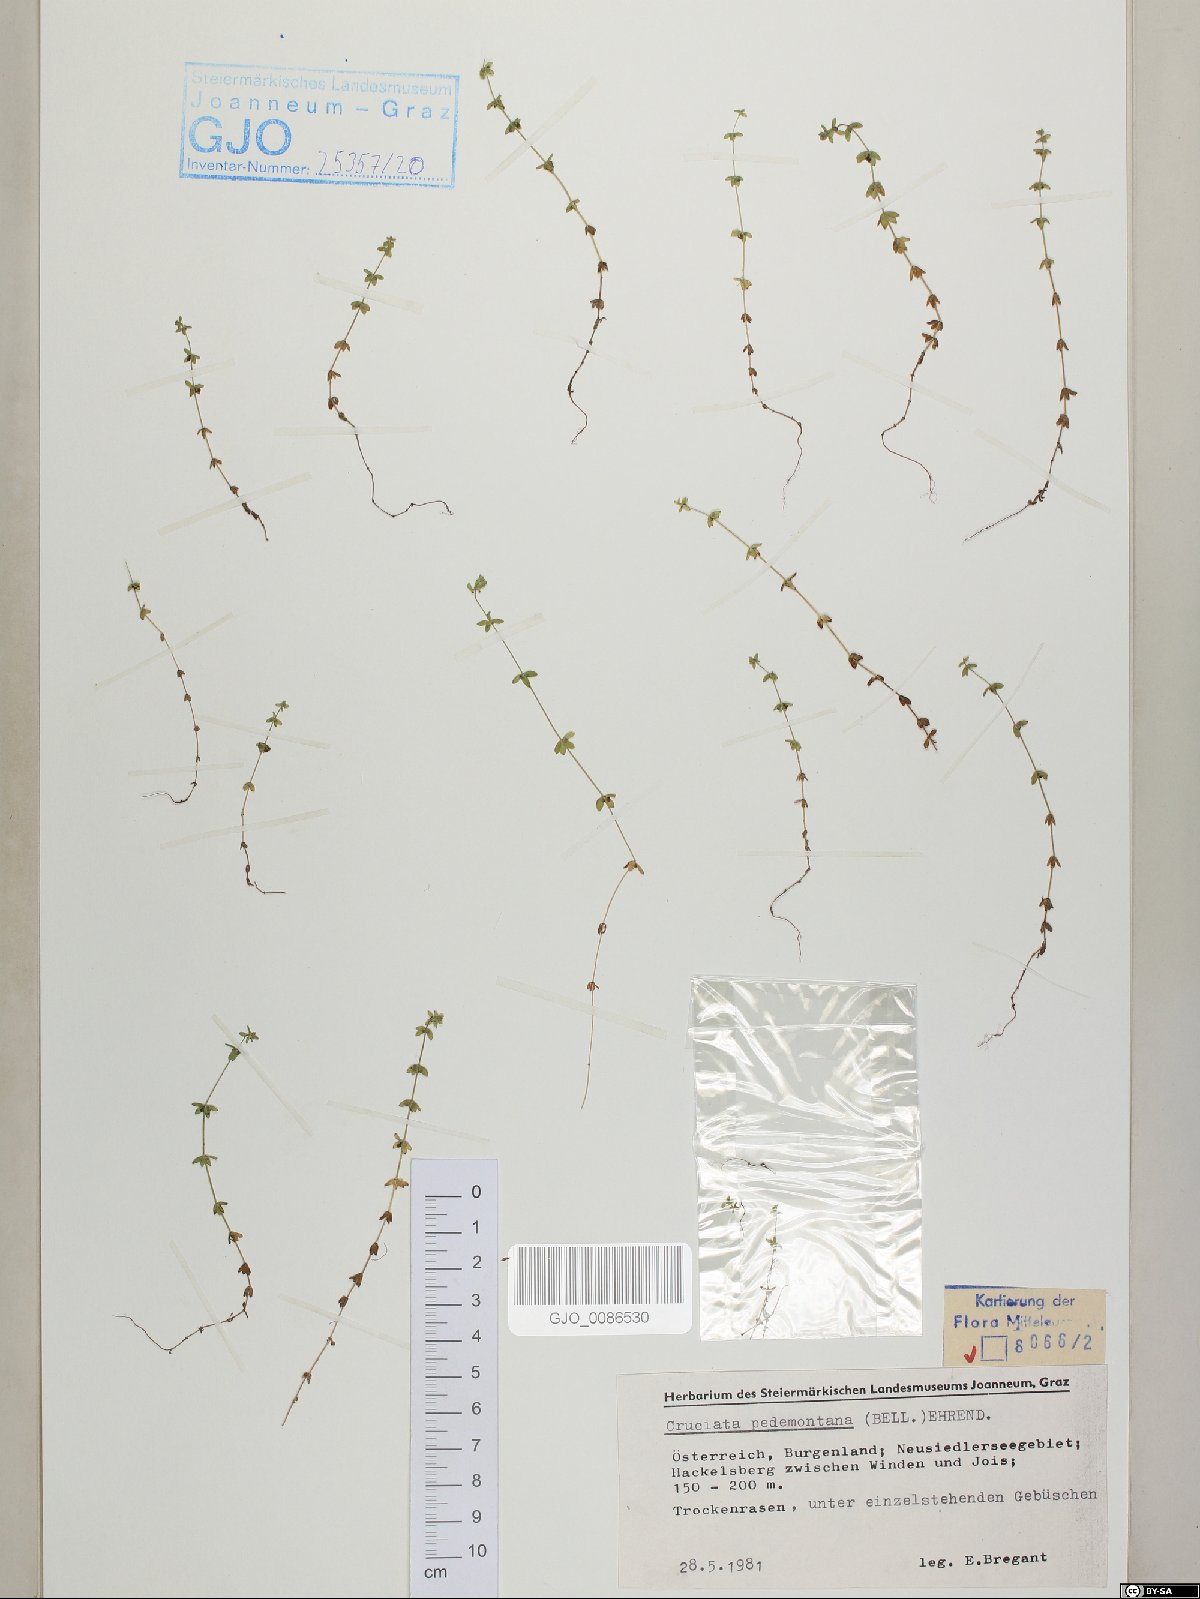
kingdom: Plantae
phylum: Tracheophyta
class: Magnoliopsida
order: Gentianales
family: Rubiaceae
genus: Cruciata
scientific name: Cruciata pedemontana
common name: Piedmont bedstraw
